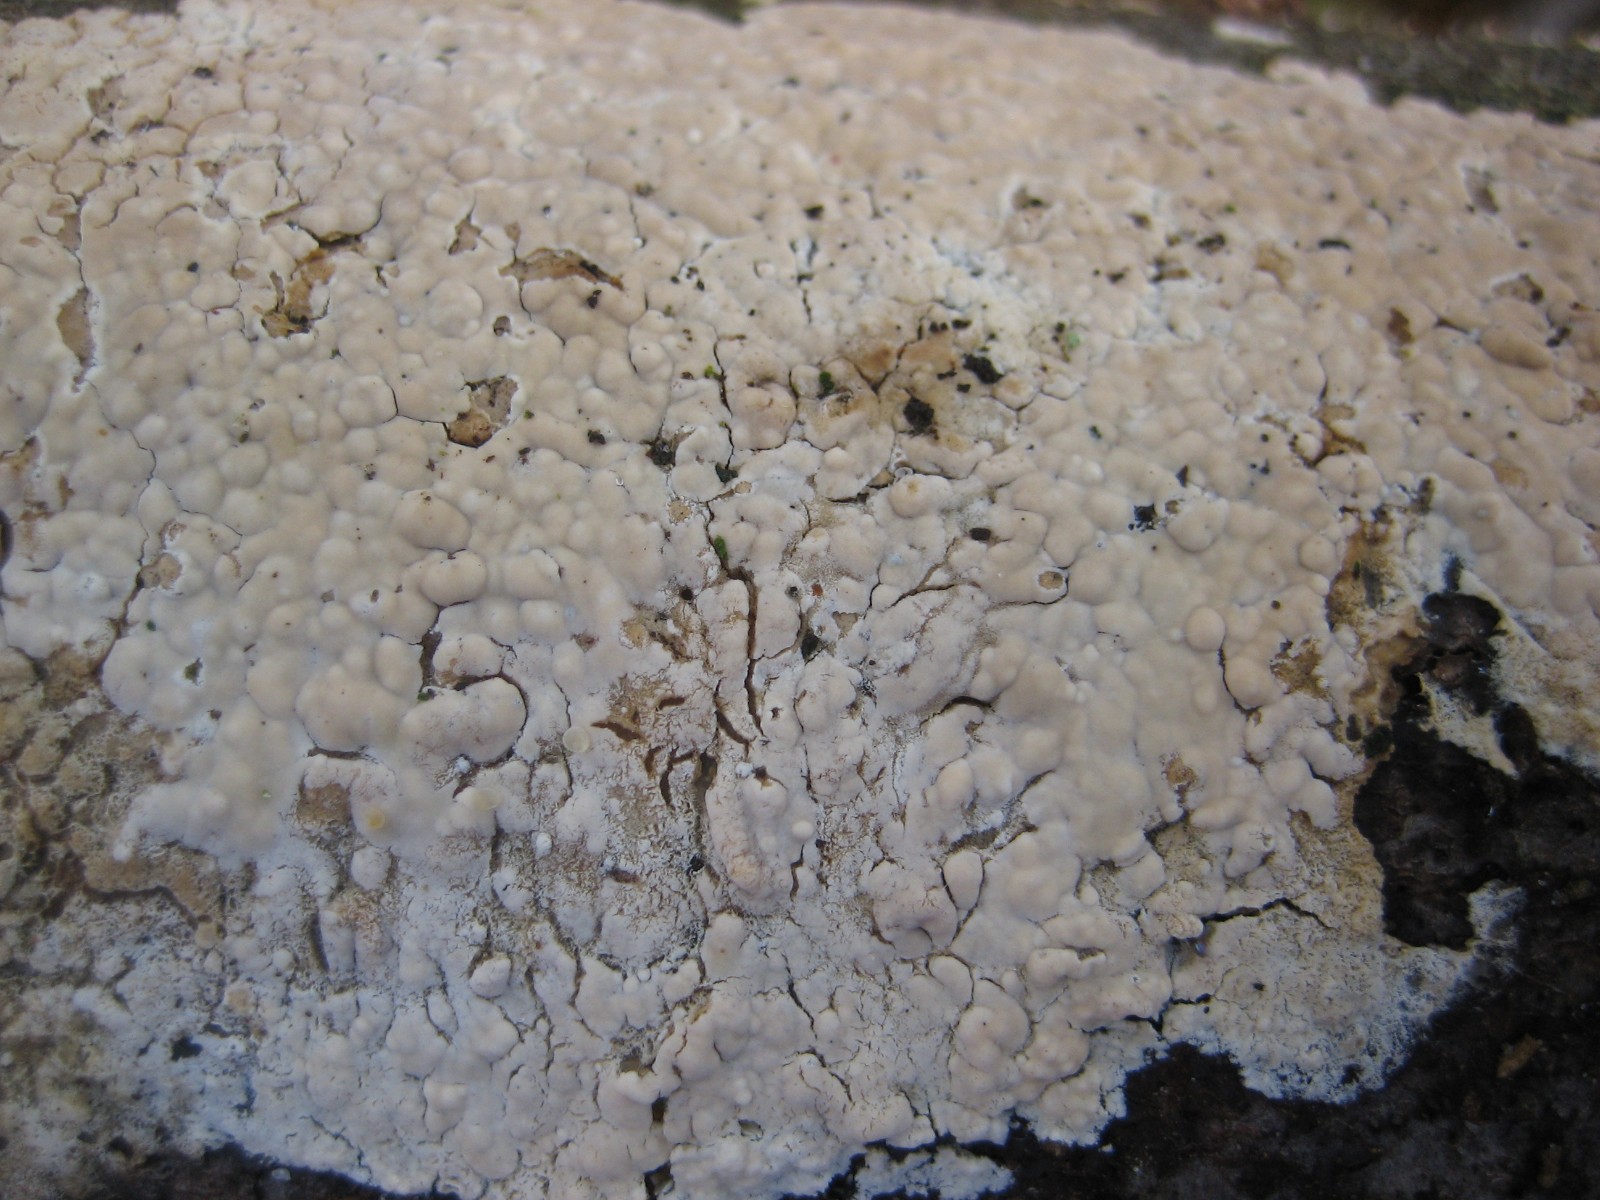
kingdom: Fungi
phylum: Basidiomycota
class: Agaricomycetes
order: Agaricales
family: Physalacriaceae
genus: Cylindrobasidium
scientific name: Cylindrobasidium evolvens
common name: sprækkehinde
